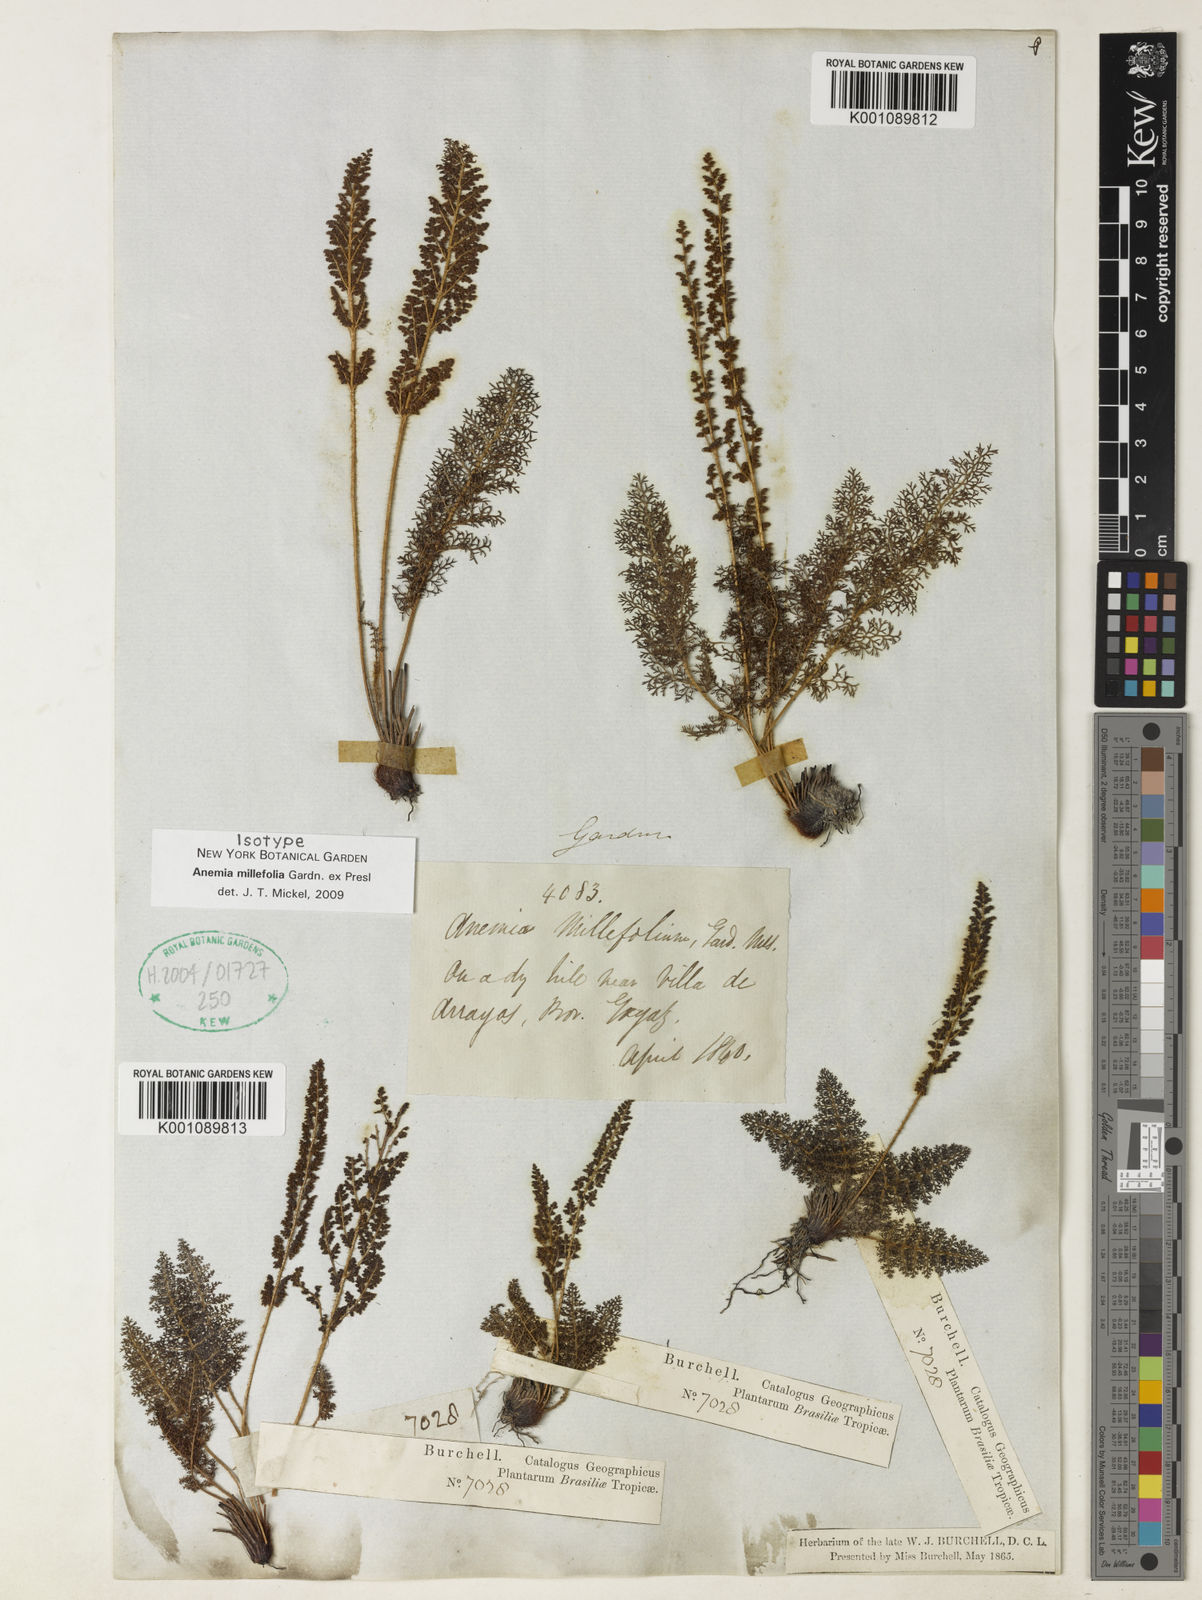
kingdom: Plantae
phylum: Tracheophyta
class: Polypodiopsida
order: Schizaeales
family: Anemiaceae
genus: Anemia
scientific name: Anemia millefolia
